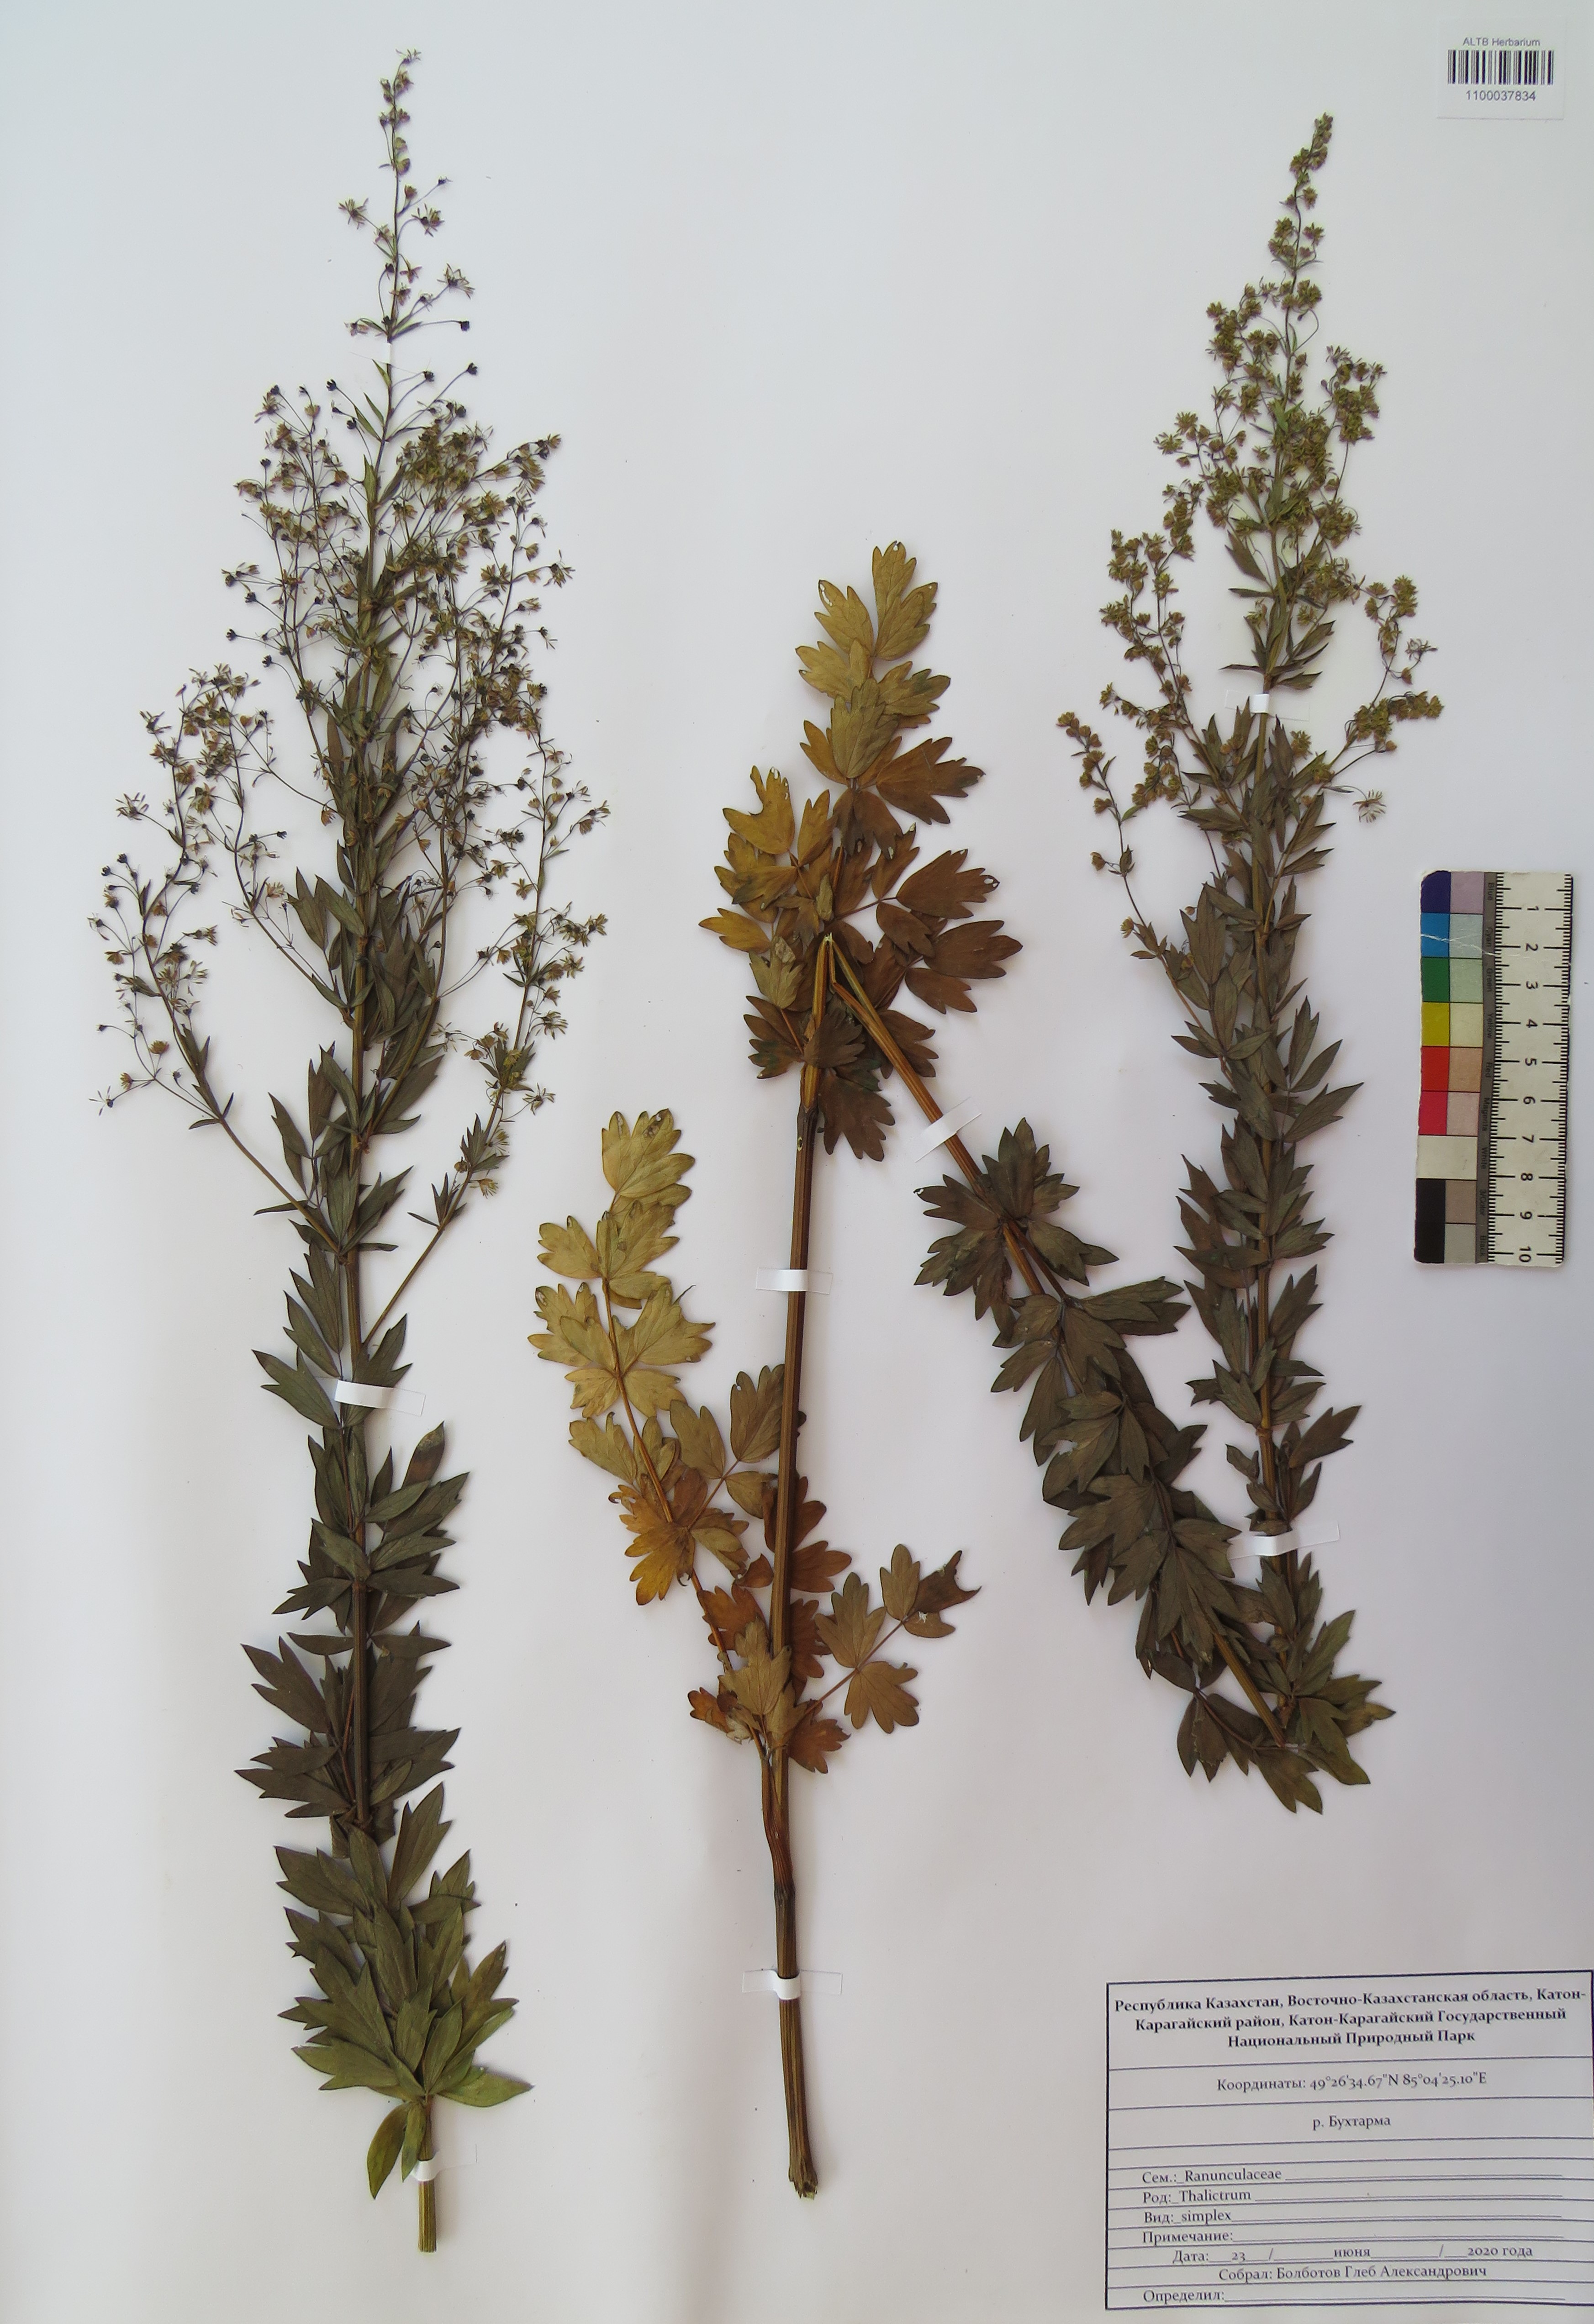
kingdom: Plantae
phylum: Tracheophyta
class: Magnoliopsida
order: Ranunculales
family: Ranunculaceae
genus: Thalictrum
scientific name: Thalictrum simplex
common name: Small meadow-rue
